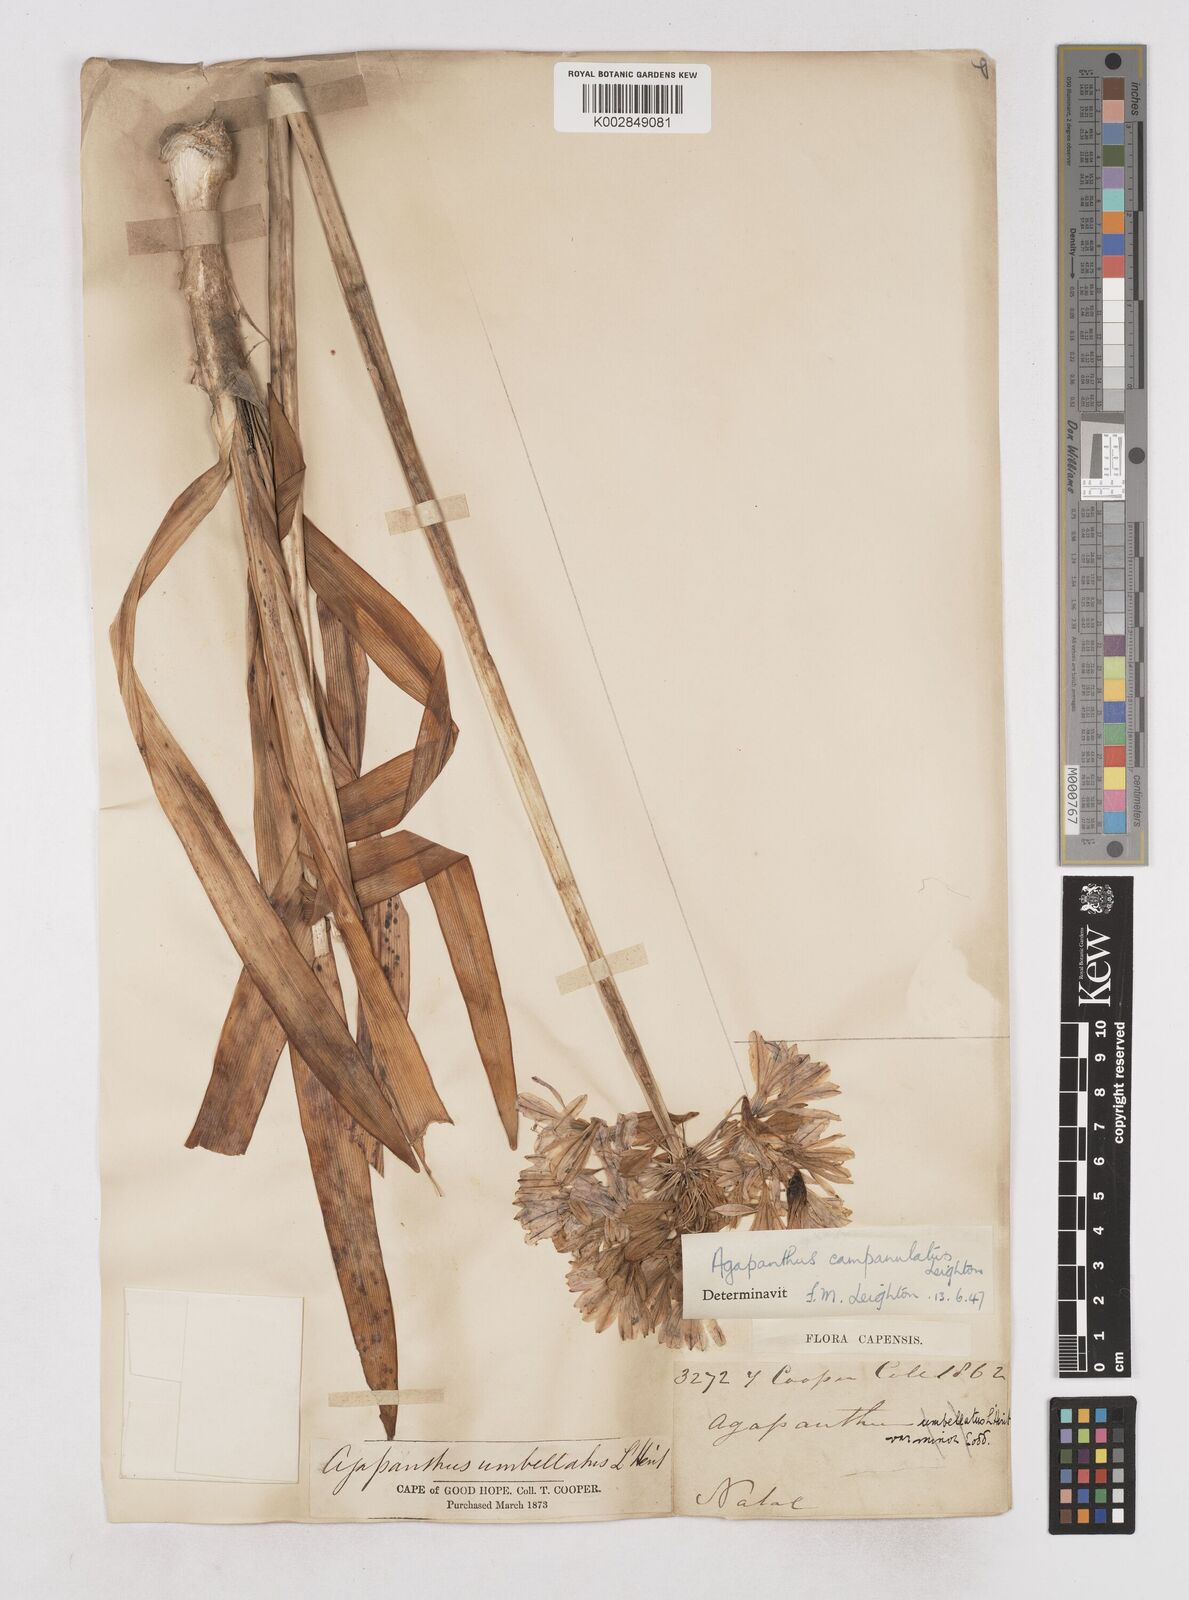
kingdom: Plantae
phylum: Tracheophyta
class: Liliopsida
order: Asparagales
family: Amaryllidaceae
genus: Agapanthus
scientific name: Agapanthus campanulatus
